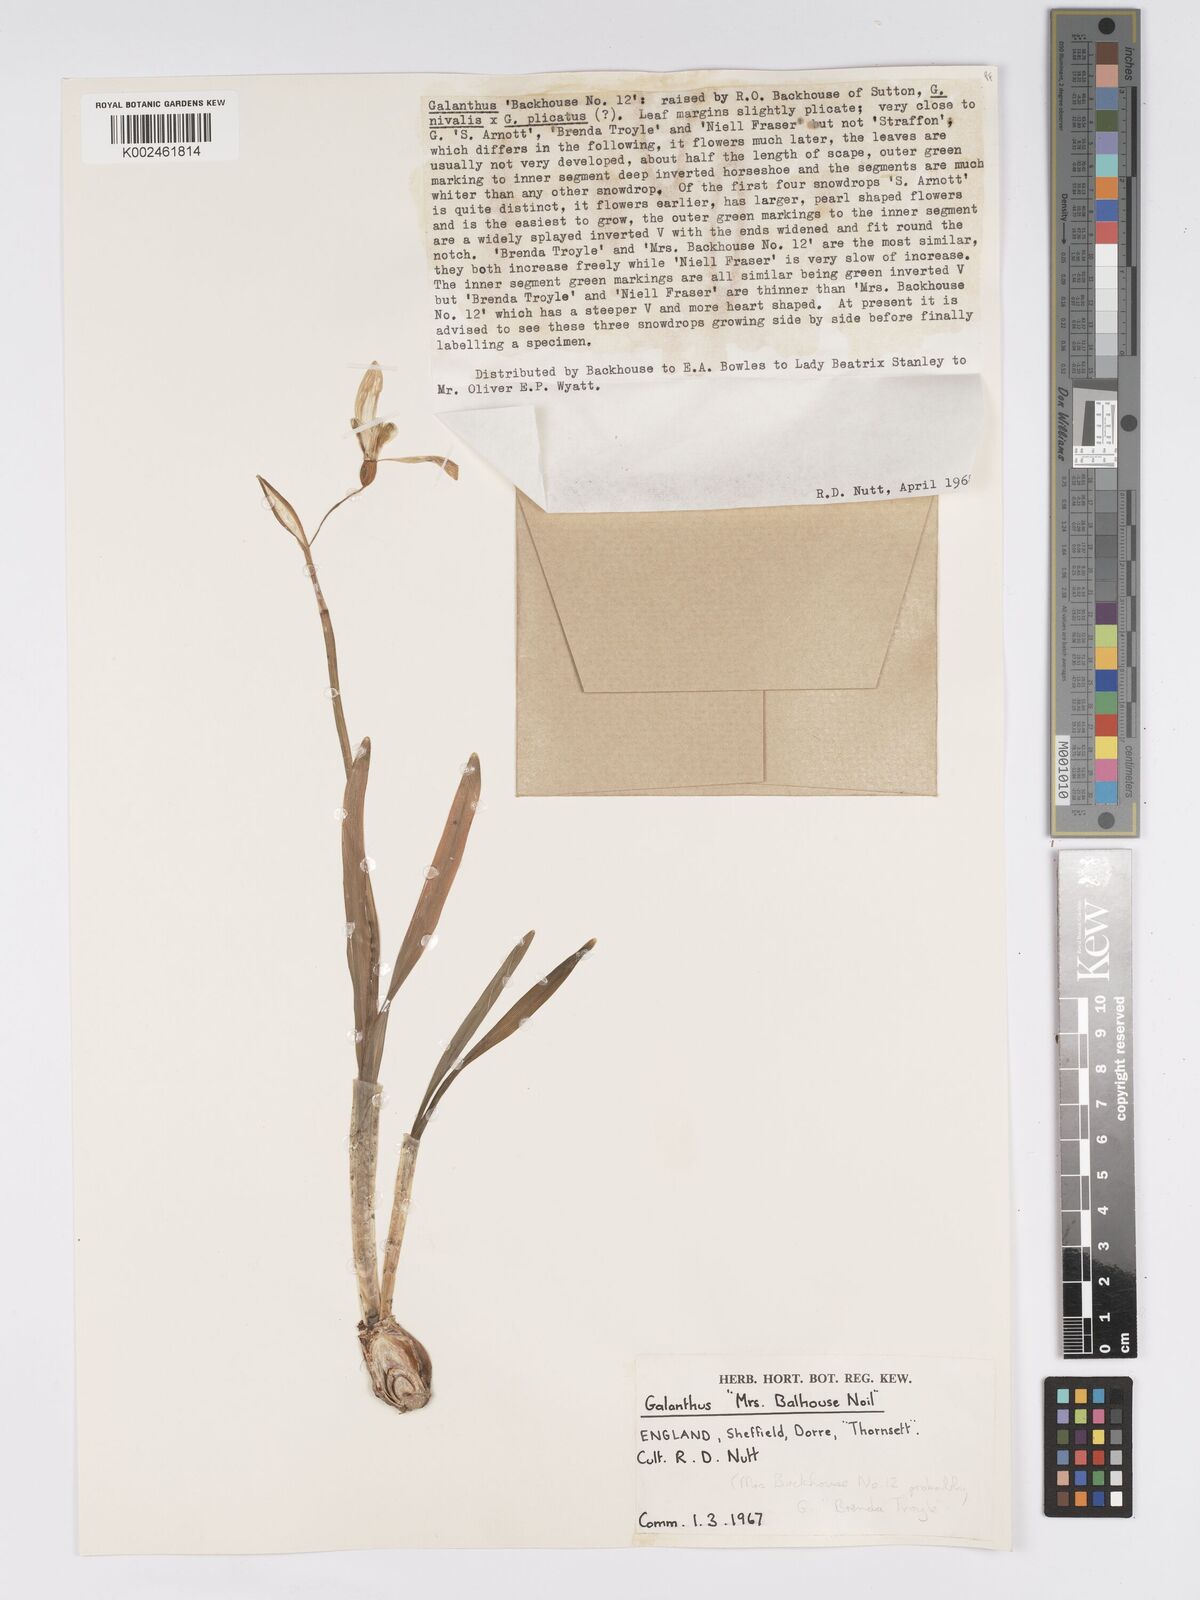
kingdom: Plantae
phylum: Tracheophyta
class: Liliopsida
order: Asparagales
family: Amaryllidaceae
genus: Galanthus
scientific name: Galanthus
